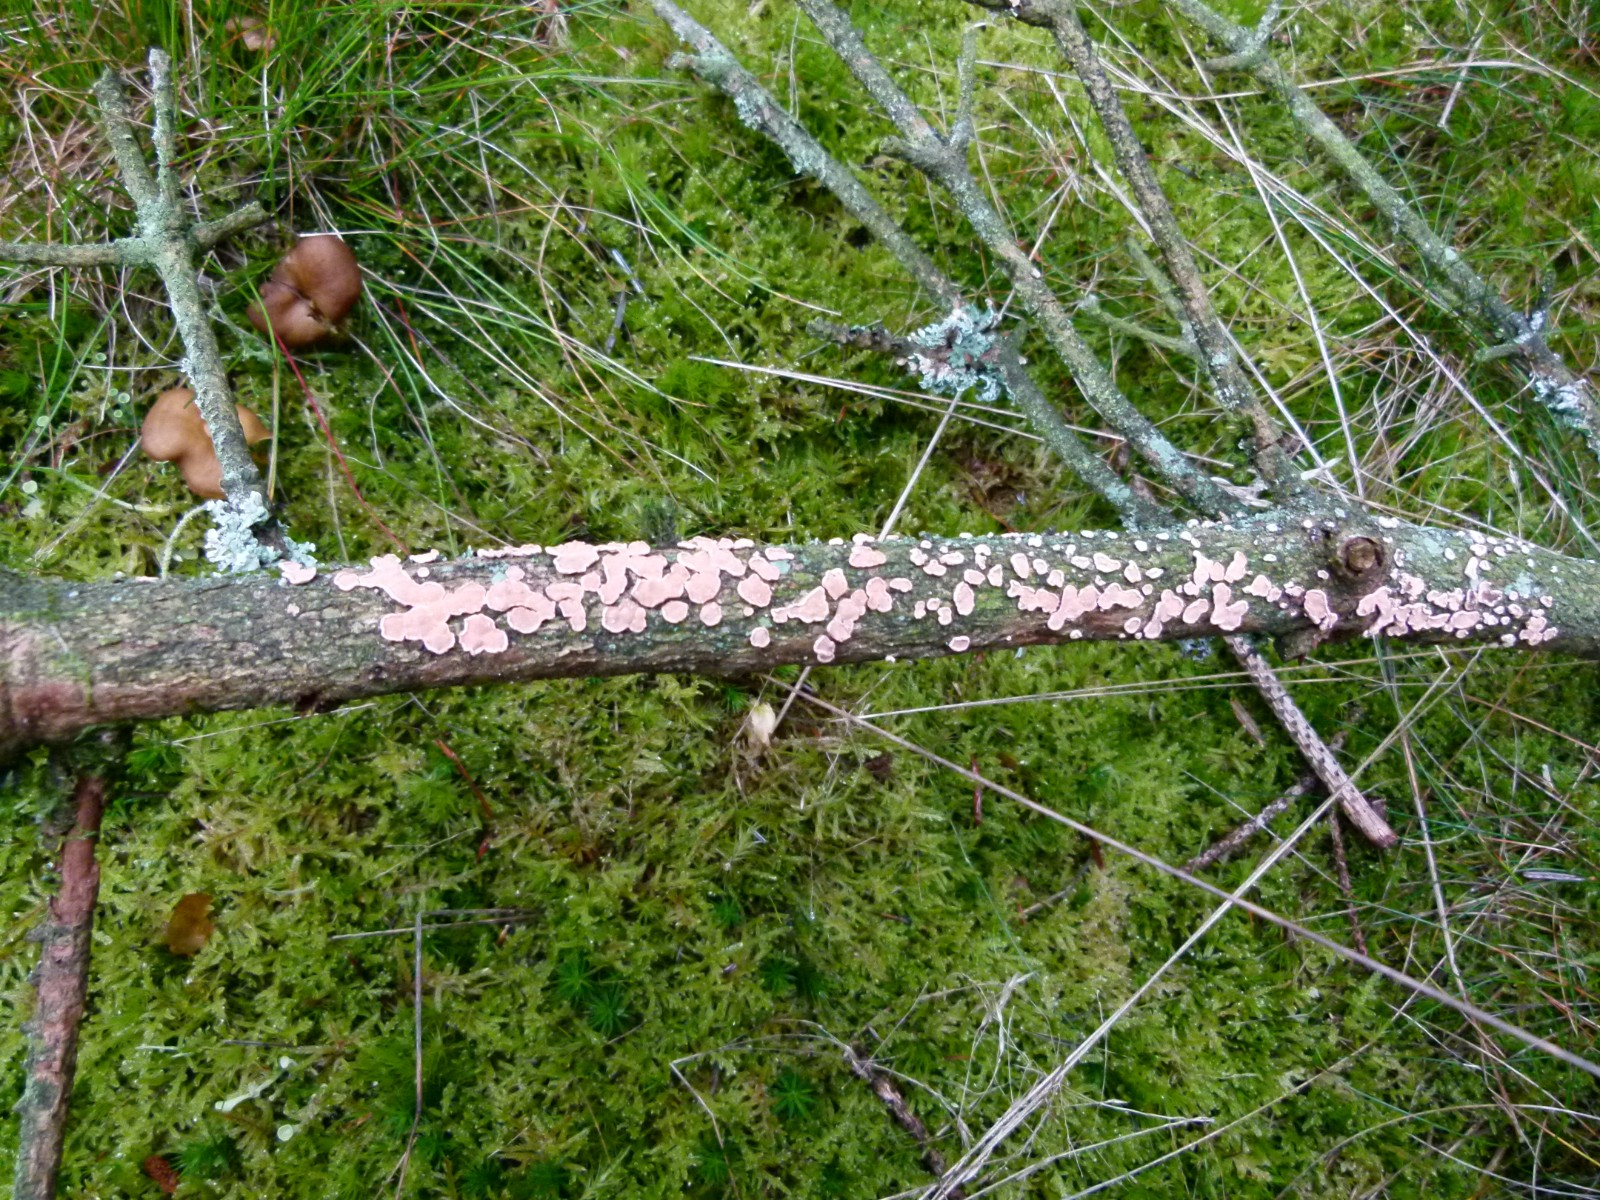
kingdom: Fungi
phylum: Basidiomycota
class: Agaricomycetes
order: Russulales
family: Stereaceae
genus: Aleurodiscus
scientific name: Aleurodiscus amorphus
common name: orange skiveskorpe
